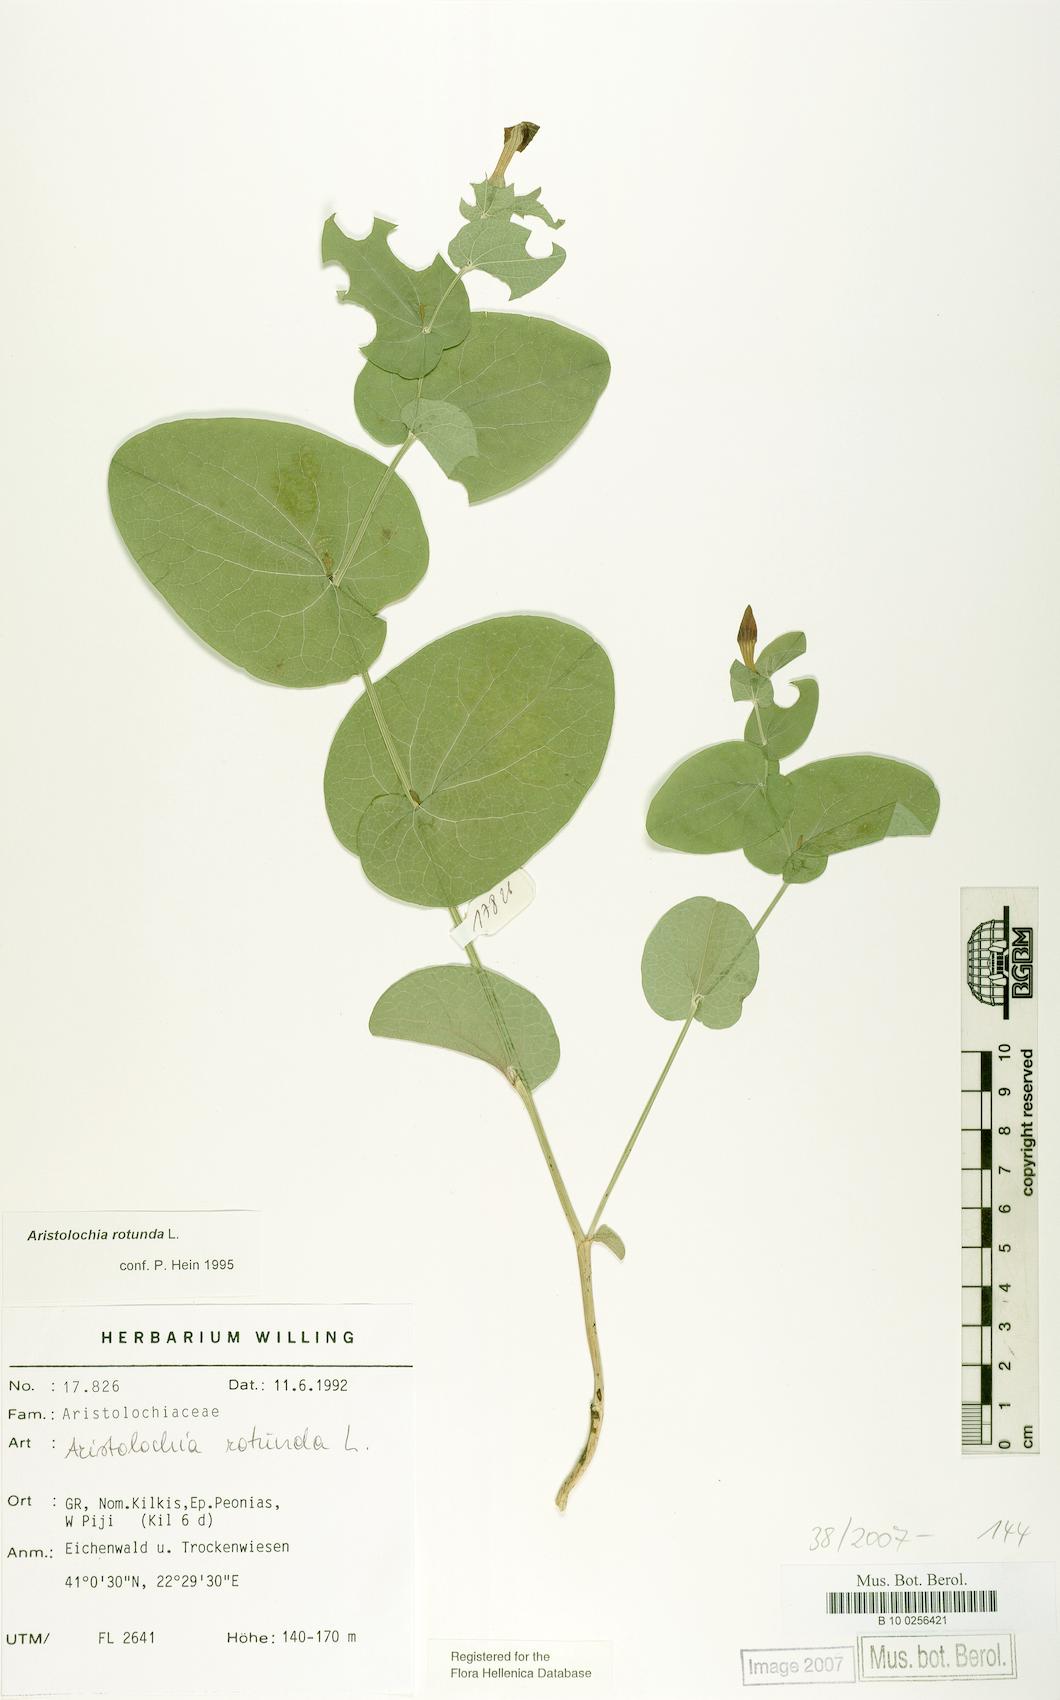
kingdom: Plantae
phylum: Tracheophyta
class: Magnoliopsida
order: Piperales
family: Aristolochiaceae
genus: Aristolochia
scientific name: Aristolochia rotunda
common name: Smearwort
